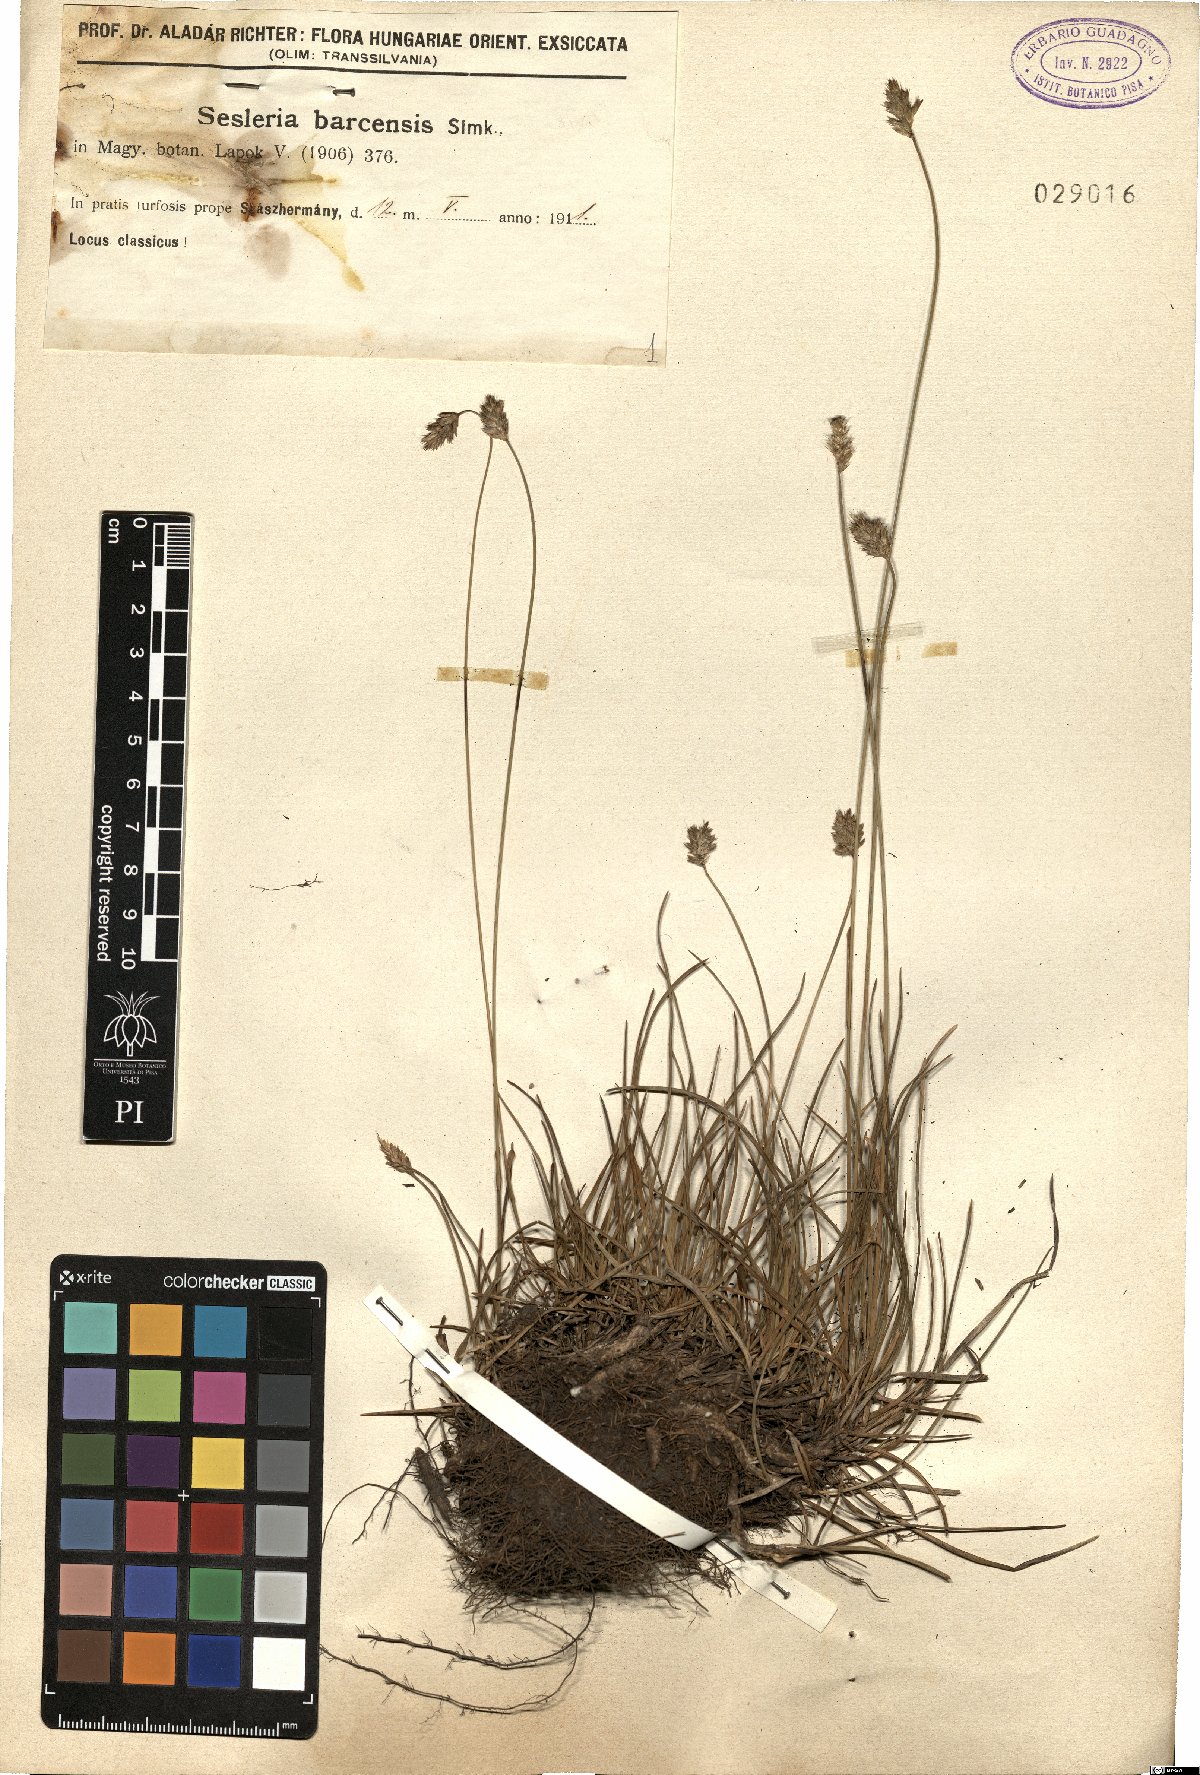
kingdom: Plantae
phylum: Tracheophyta
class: Liliopsida
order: Poales
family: Poaceae
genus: Sesleria
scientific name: Sesleria caerulea
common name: Blue moor-grass
